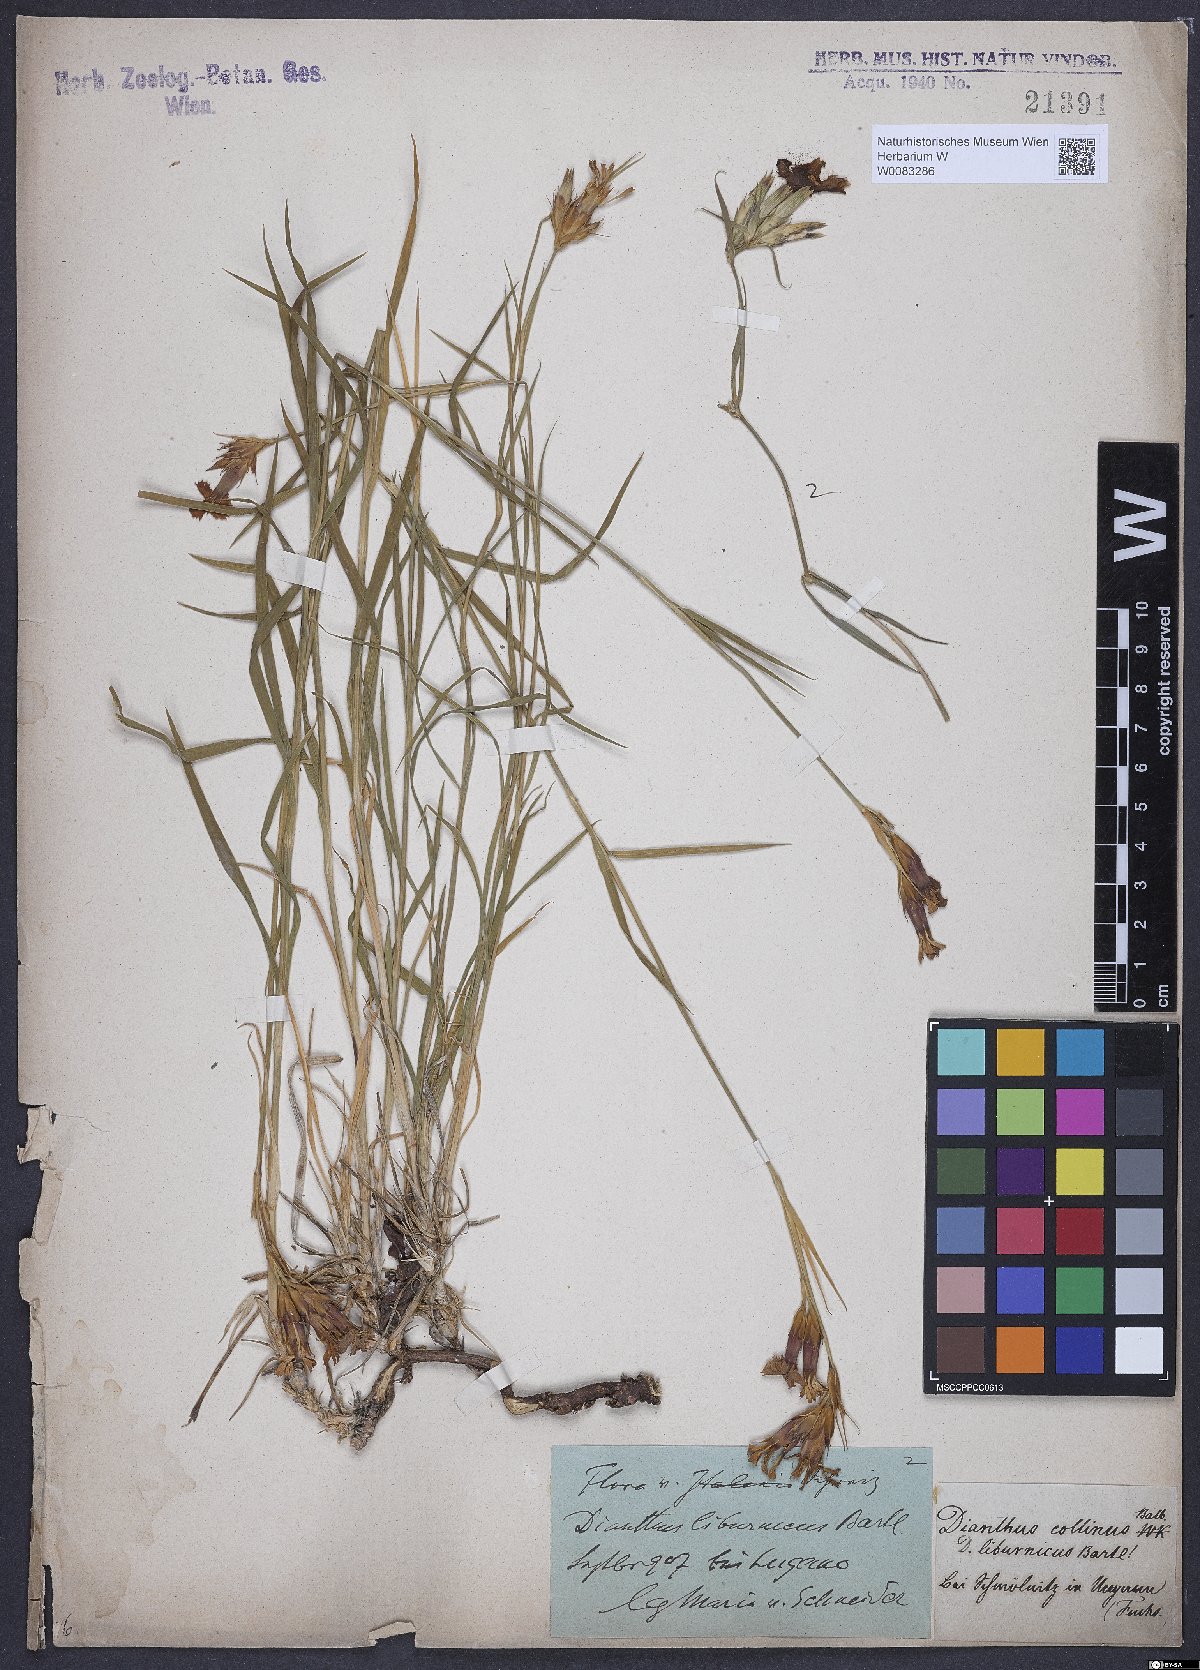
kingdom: Plantae
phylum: Tracheophyta
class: Magnoliopsida
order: Caryophyllales
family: Caryophyllaceae
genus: Dianthus
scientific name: Dianthus collinus
